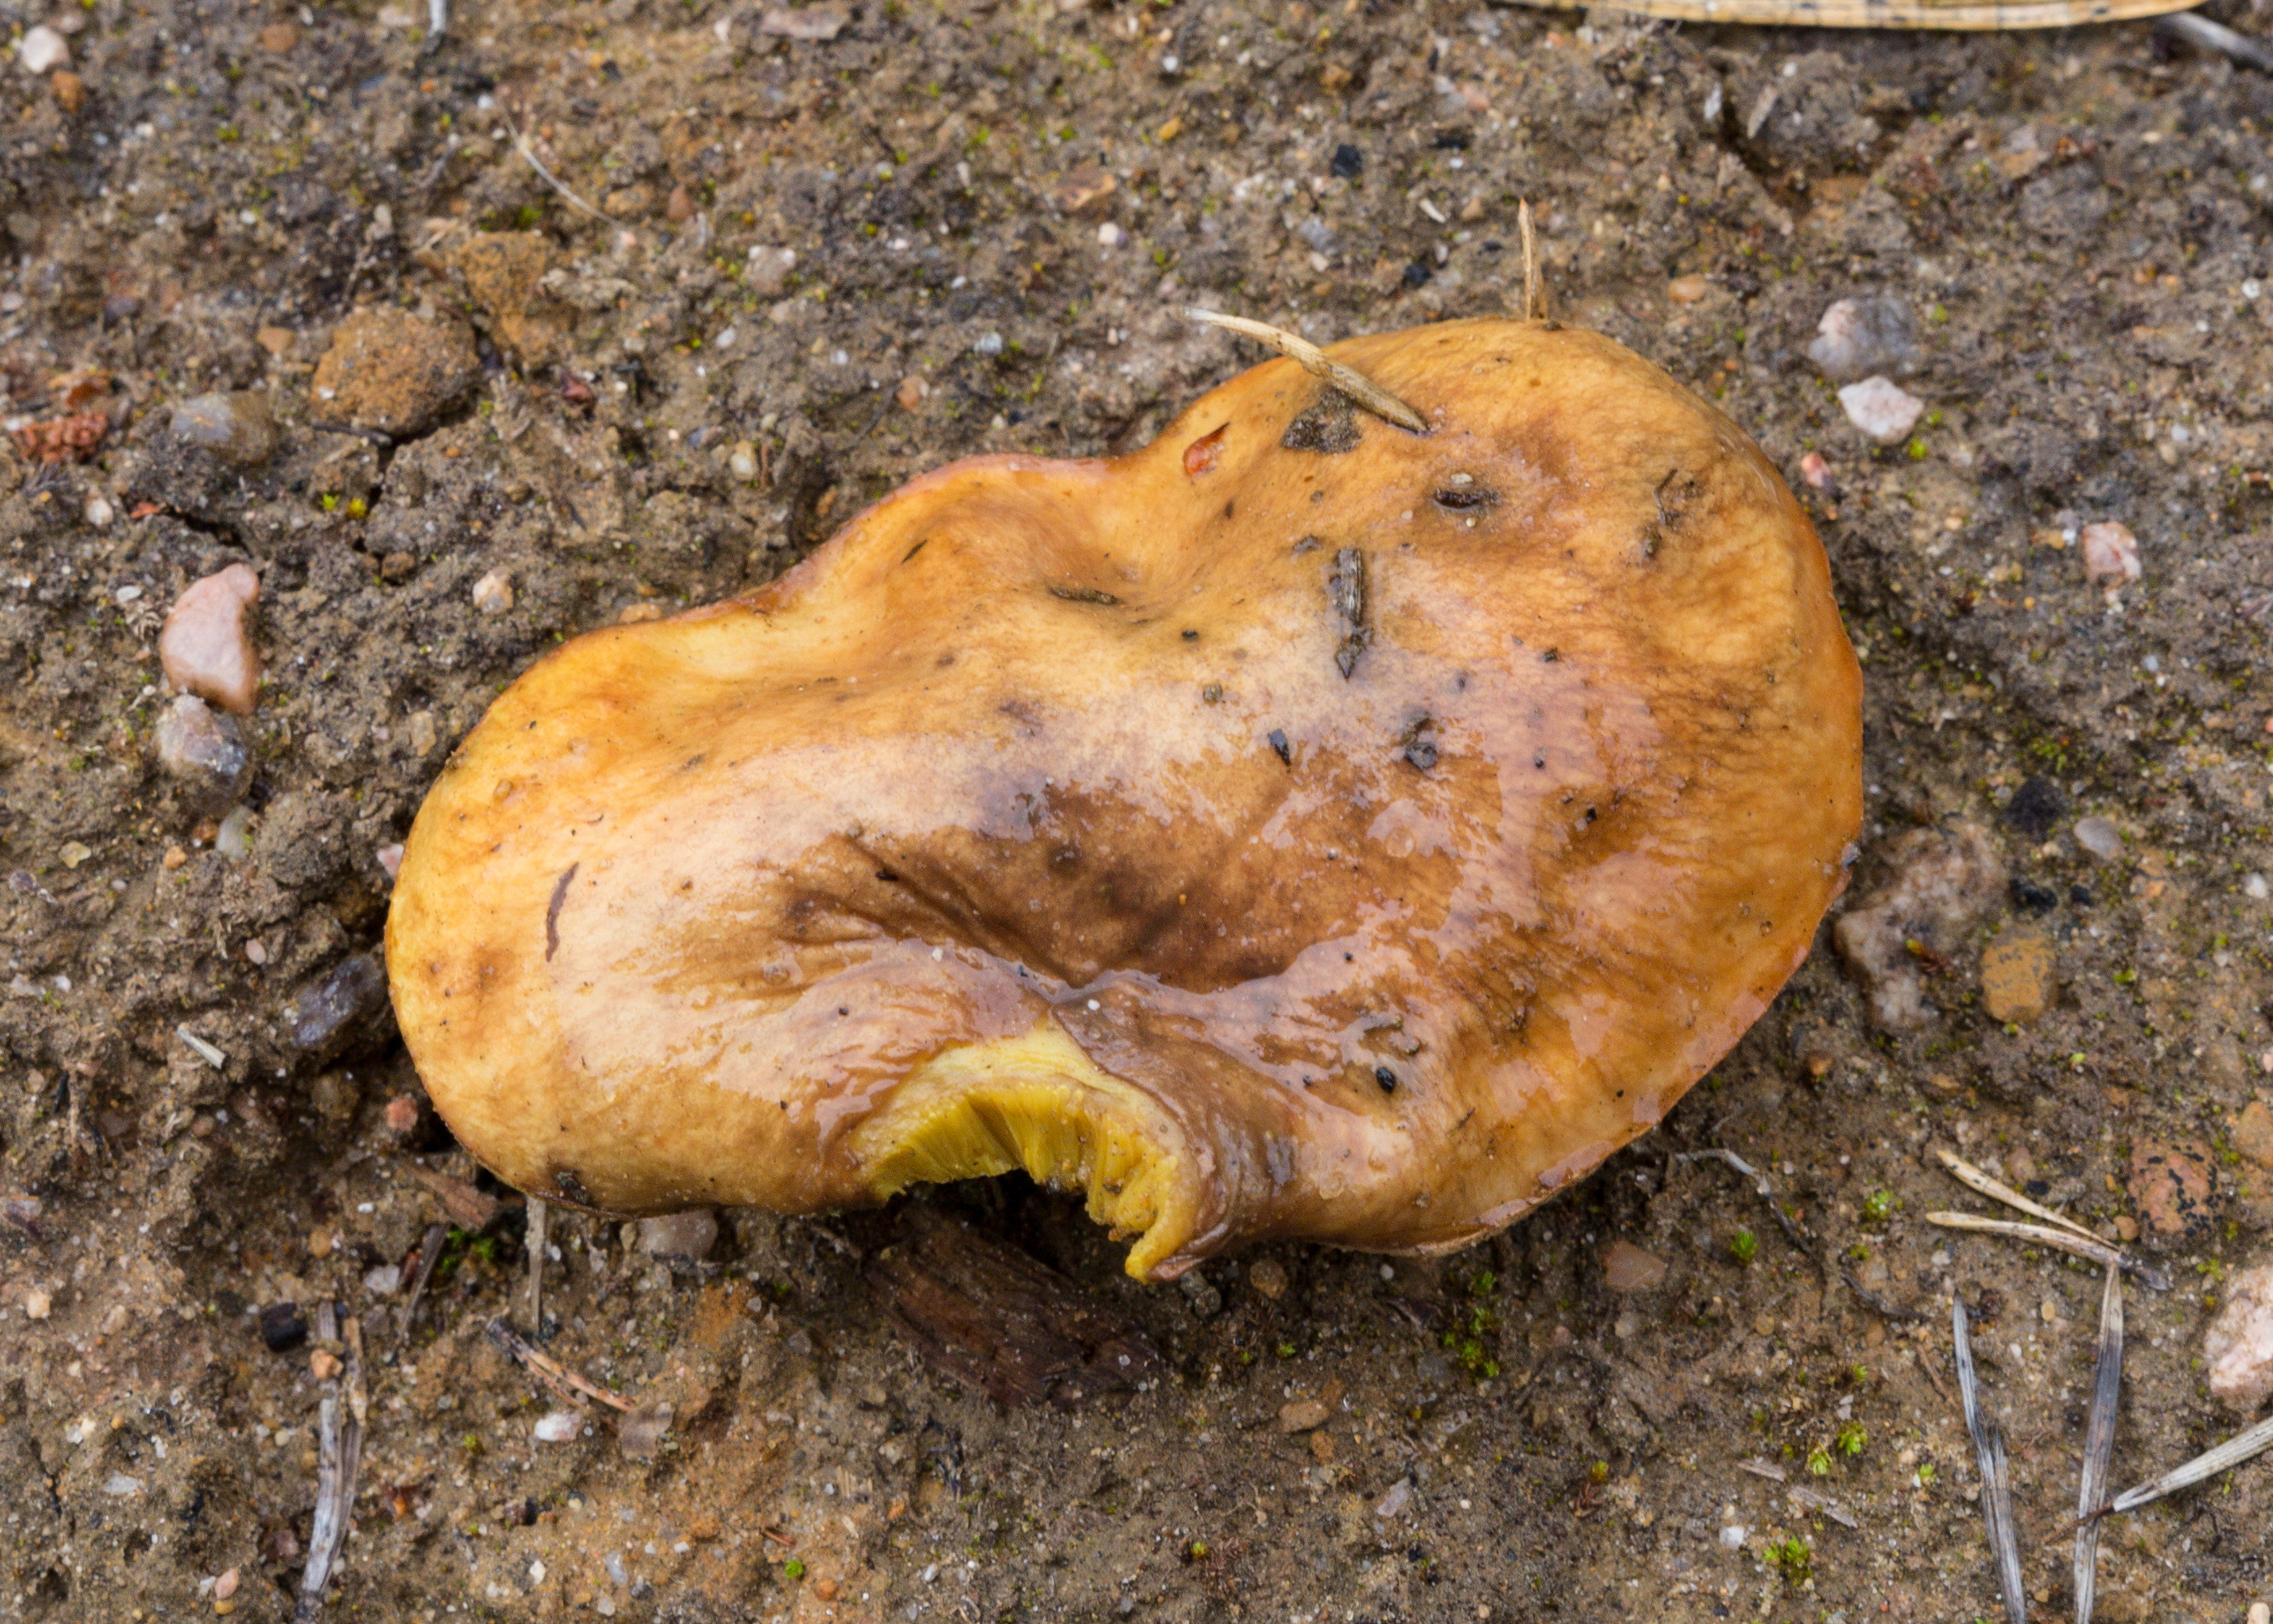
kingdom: Fungi
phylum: Basidiomycota
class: Agaricomycetes
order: Boletales
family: Suillaceae
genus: Suillus
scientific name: Suillus luteus
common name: Slippery jack
